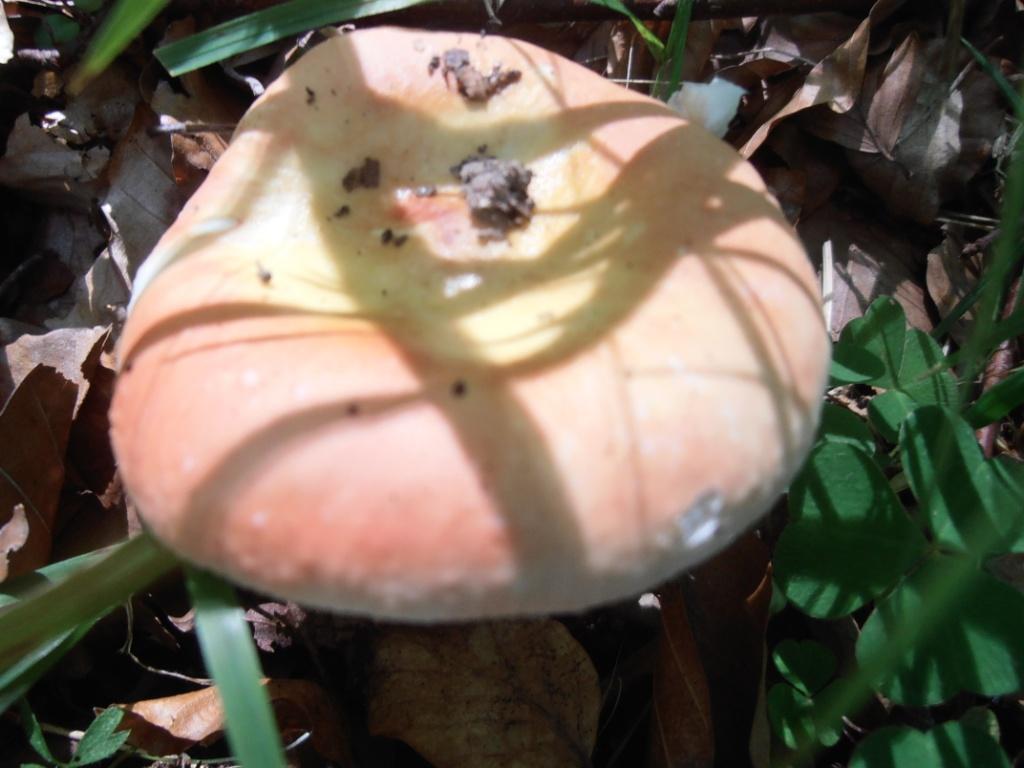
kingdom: Fungi
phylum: Basidiomycota
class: Agaricomycetes
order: Russulales
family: Russulaceae
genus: Russula
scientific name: Russula aurora
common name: rosa skørhat
